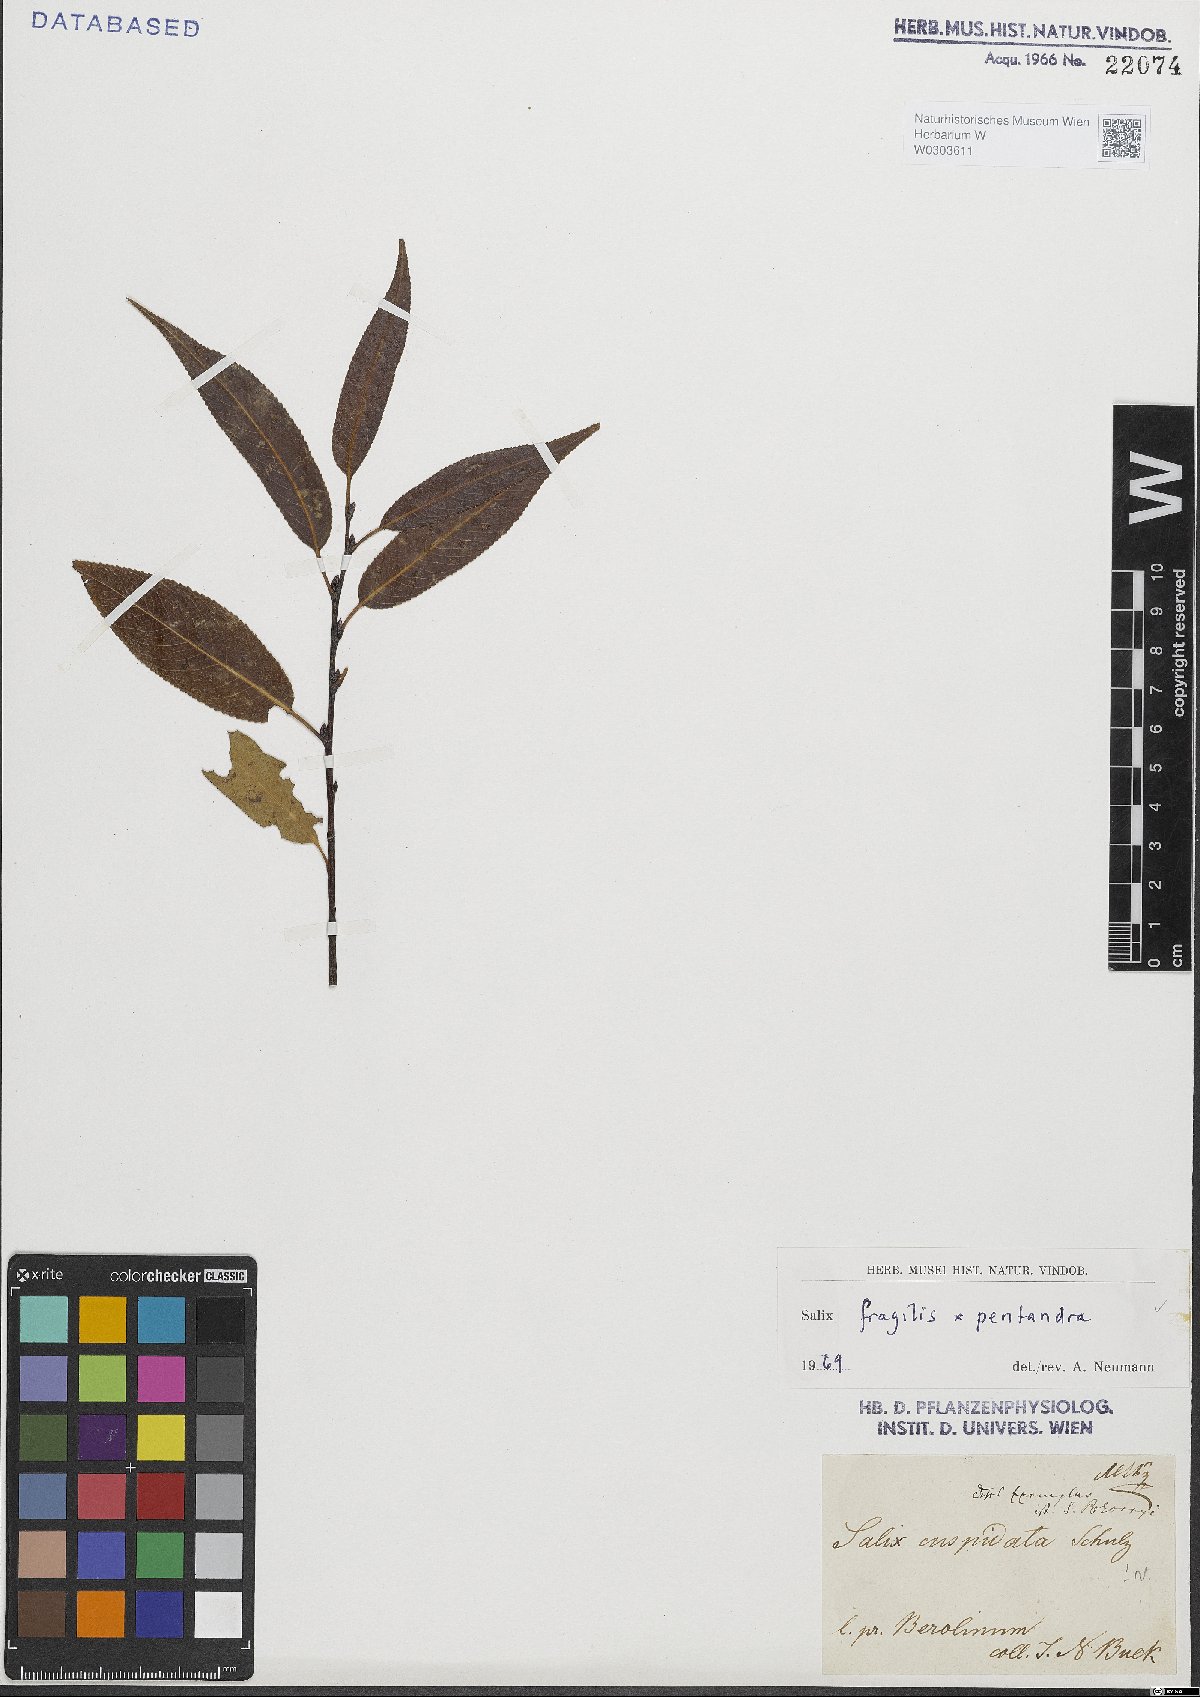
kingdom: Plantae
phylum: Tracheophyta
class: Magnoliopsida
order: Malpighiales
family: Salicaceae
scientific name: Salicaceae
